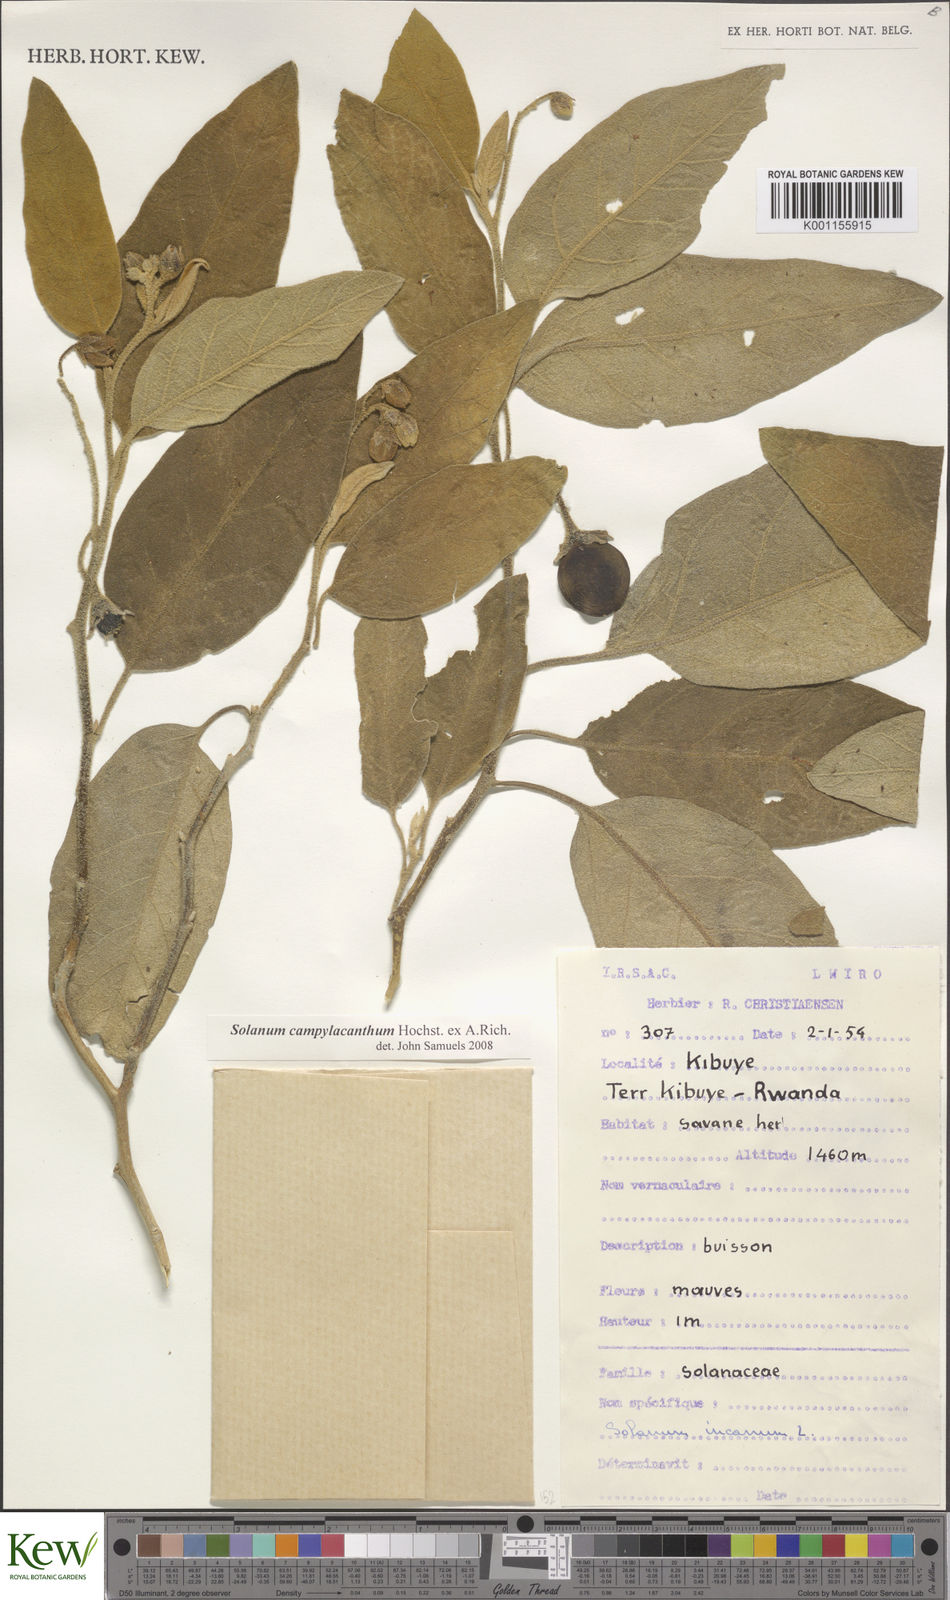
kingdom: Plantae
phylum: Tracheophyta
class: Magnoliopsida
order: Solanales
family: Solanaceae
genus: Solanum
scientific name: Solanum campylacanthum
